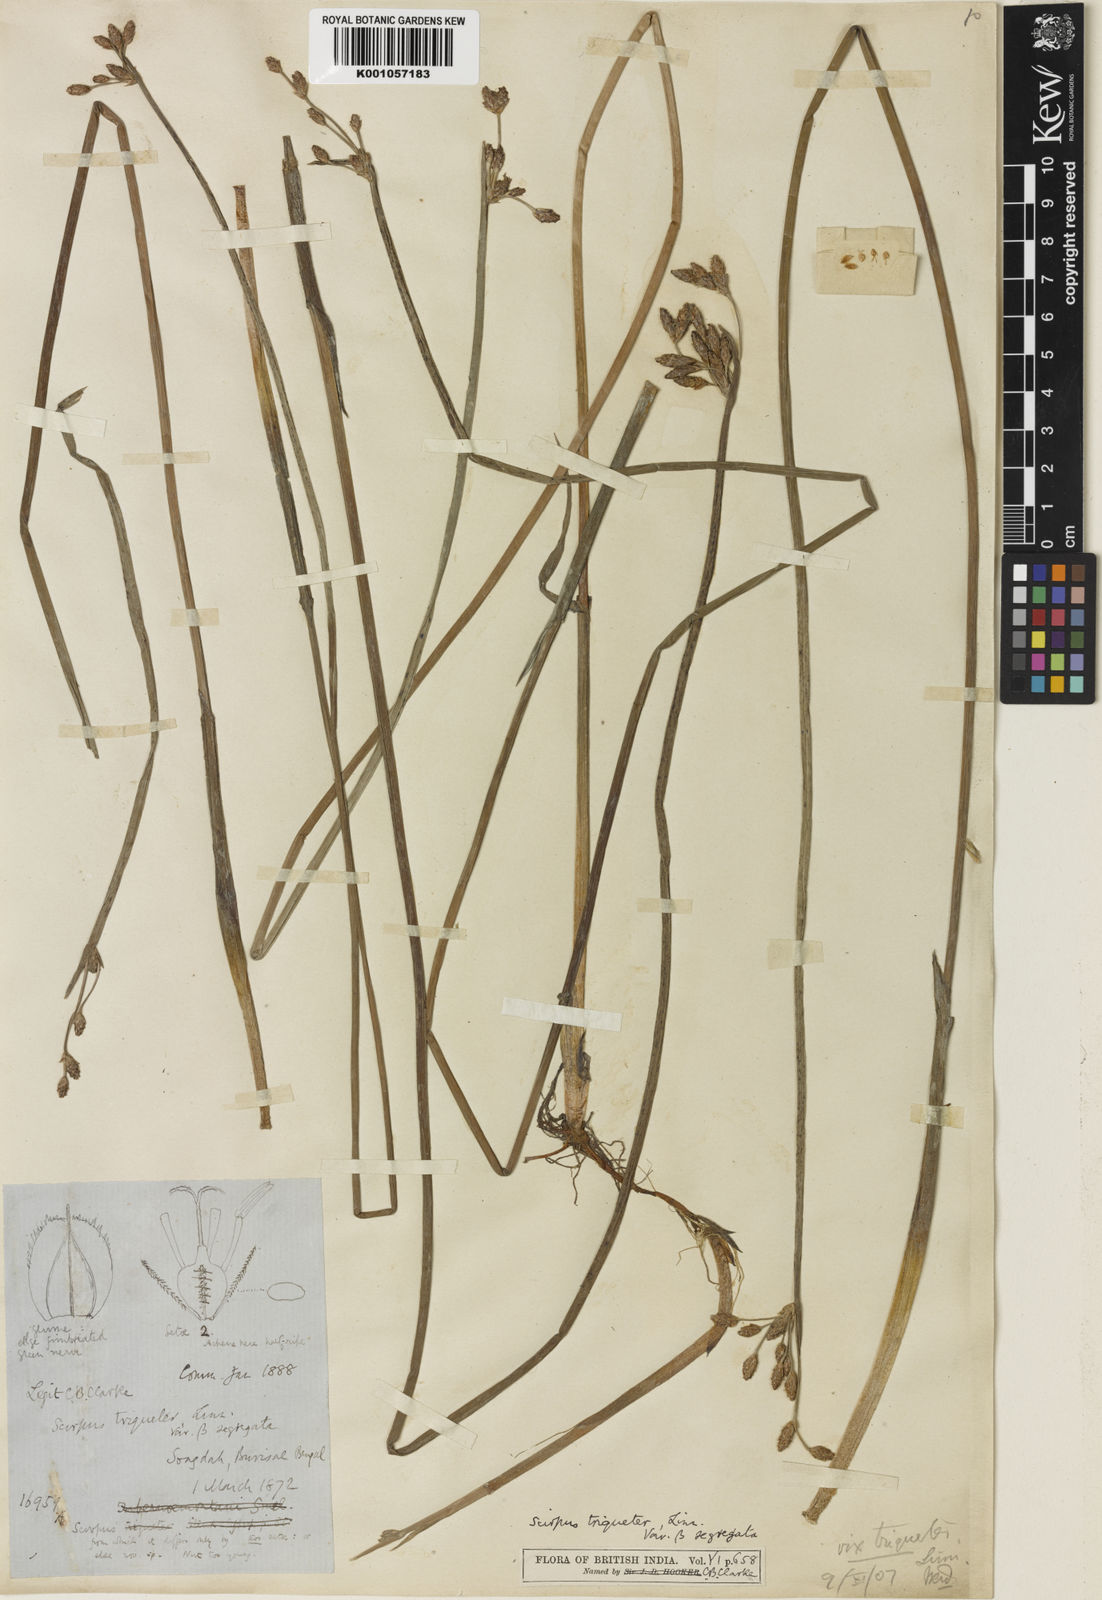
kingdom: Plantae
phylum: Tracheophyta
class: Liliopsida
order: Poales
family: Cyperaceae
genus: Schoenoplectus
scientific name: Schoenoplectus triqueter
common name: Triangular club-rush
